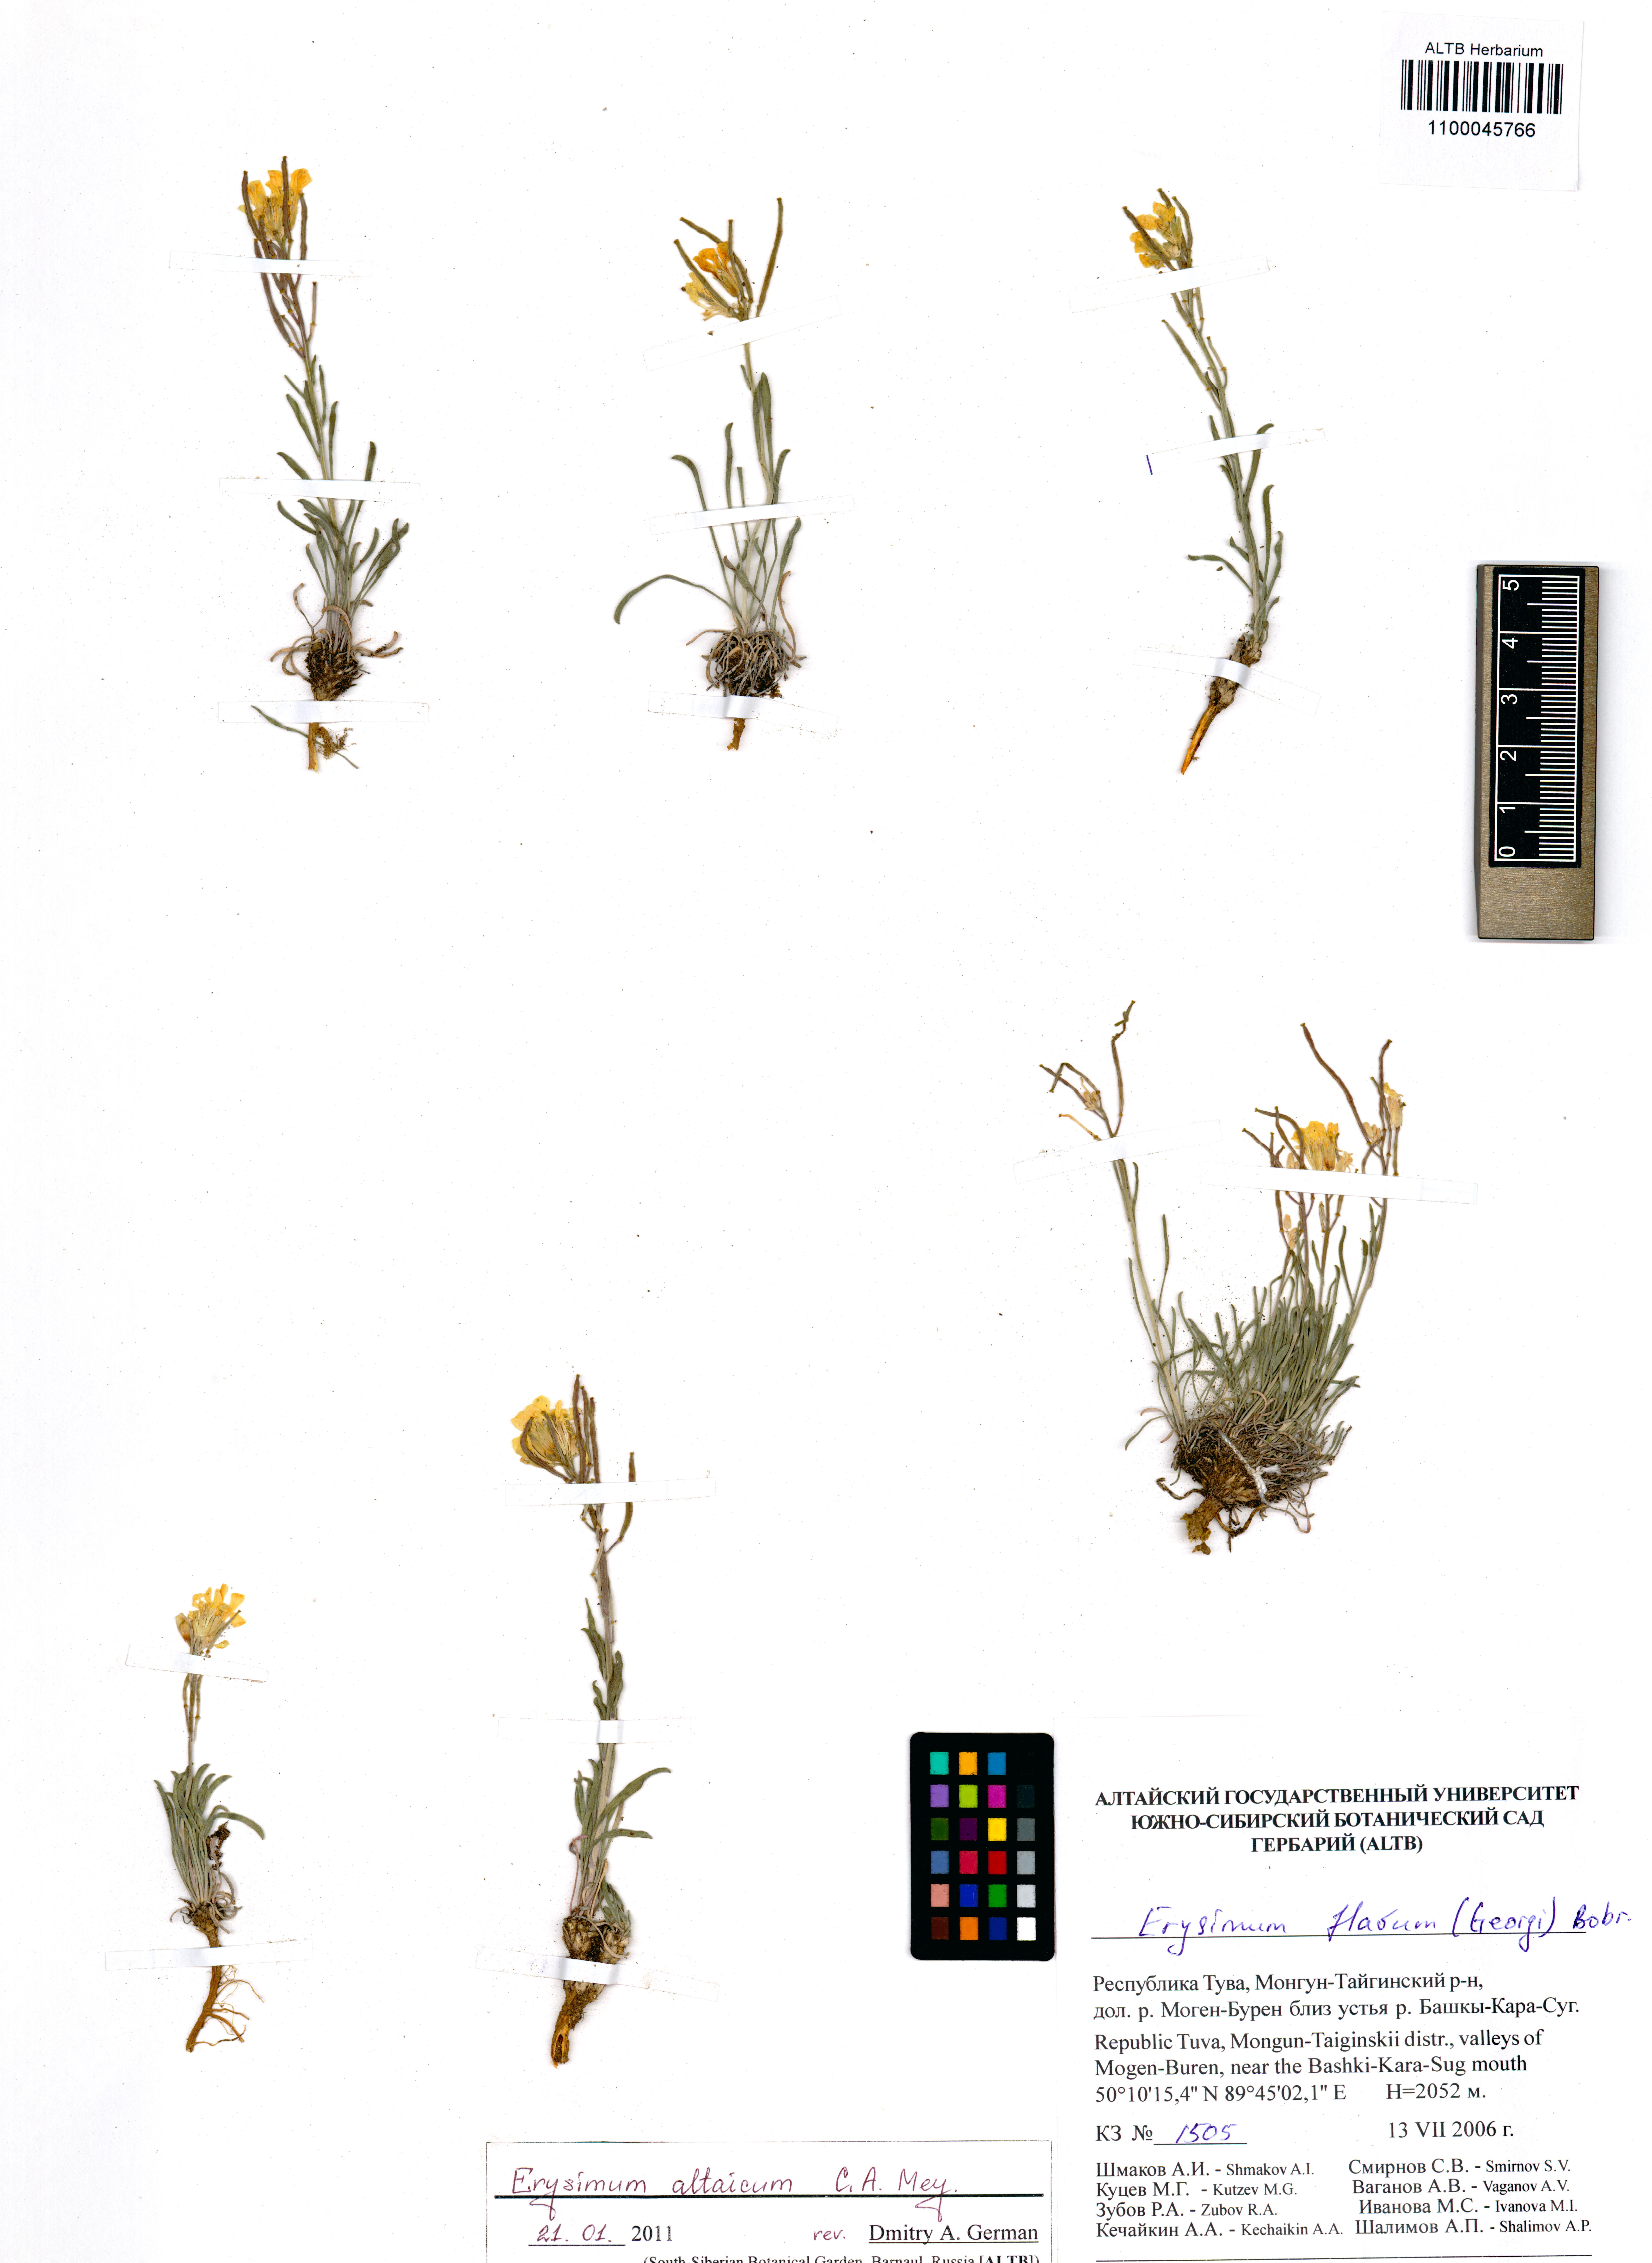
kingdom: Plantae
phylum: Tracheophyta
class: Magnoliopsida
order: Brassicales
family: Brassicaceae
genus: Erysimum
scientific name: Erysimum altaicum
